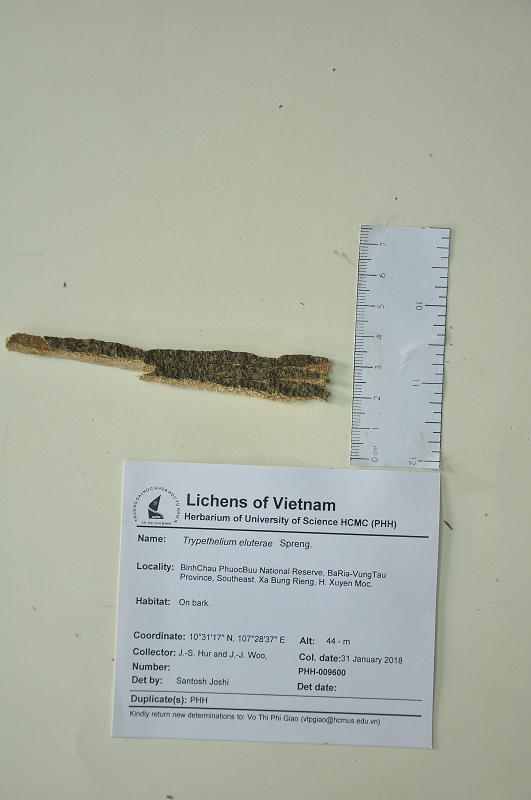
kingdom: Fungi
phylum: Ascomycota
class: Dothideomycetes
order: Trypetheliales
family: Trypetheliaceae
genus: Trypethelium
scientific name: Trypethelium eluteriae
